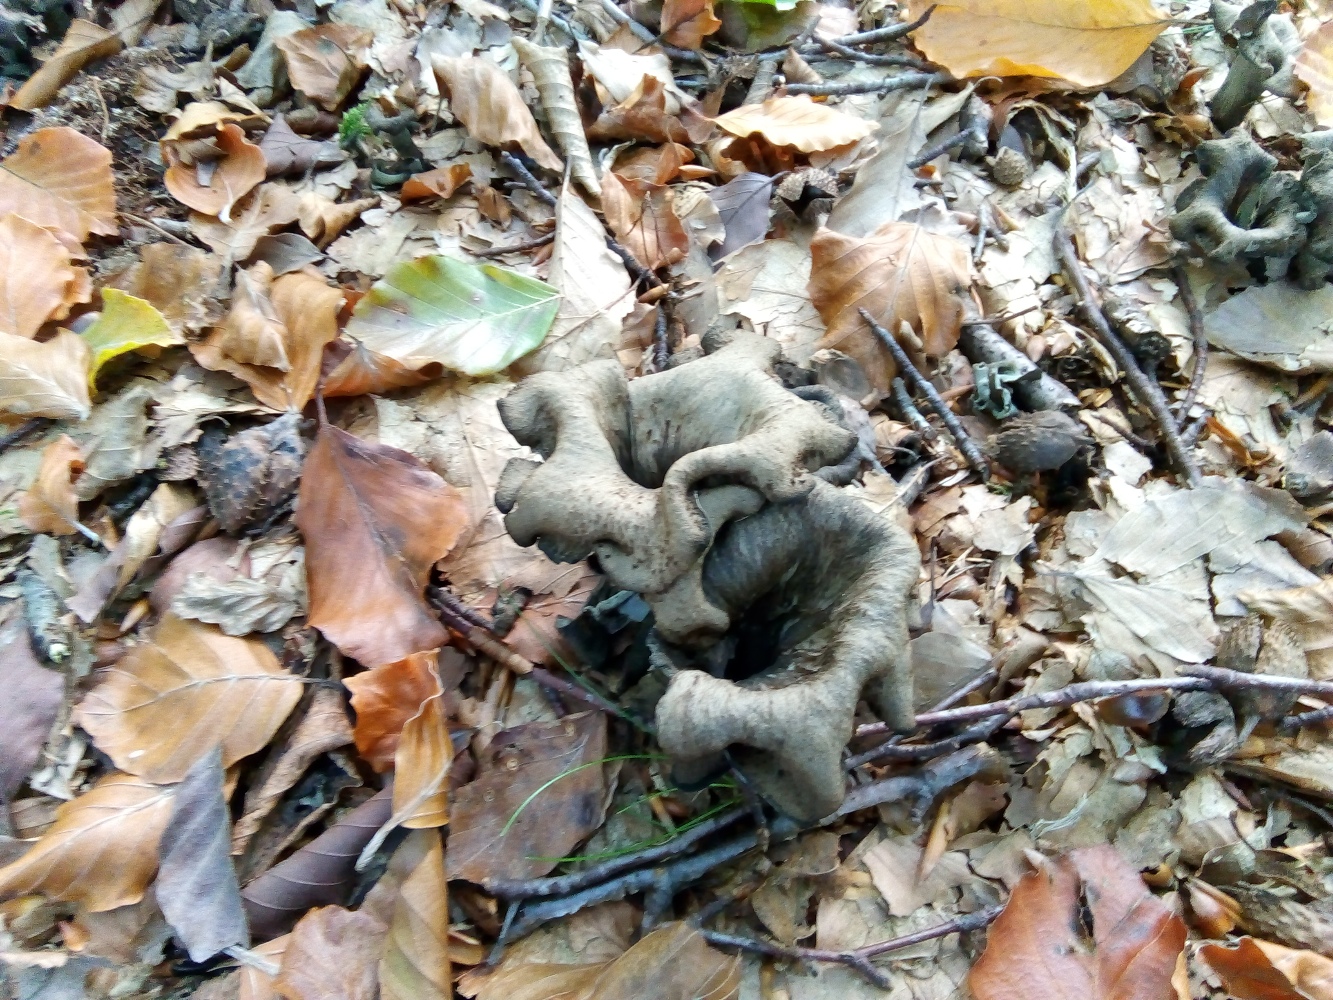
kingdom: Fungi
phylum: Basidiomycota
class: Agaricomycetes
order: Cantharellales
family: Hydnaceae
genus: Craterellus
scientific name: Craterellus cornucopioides
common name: trompetsvamp
